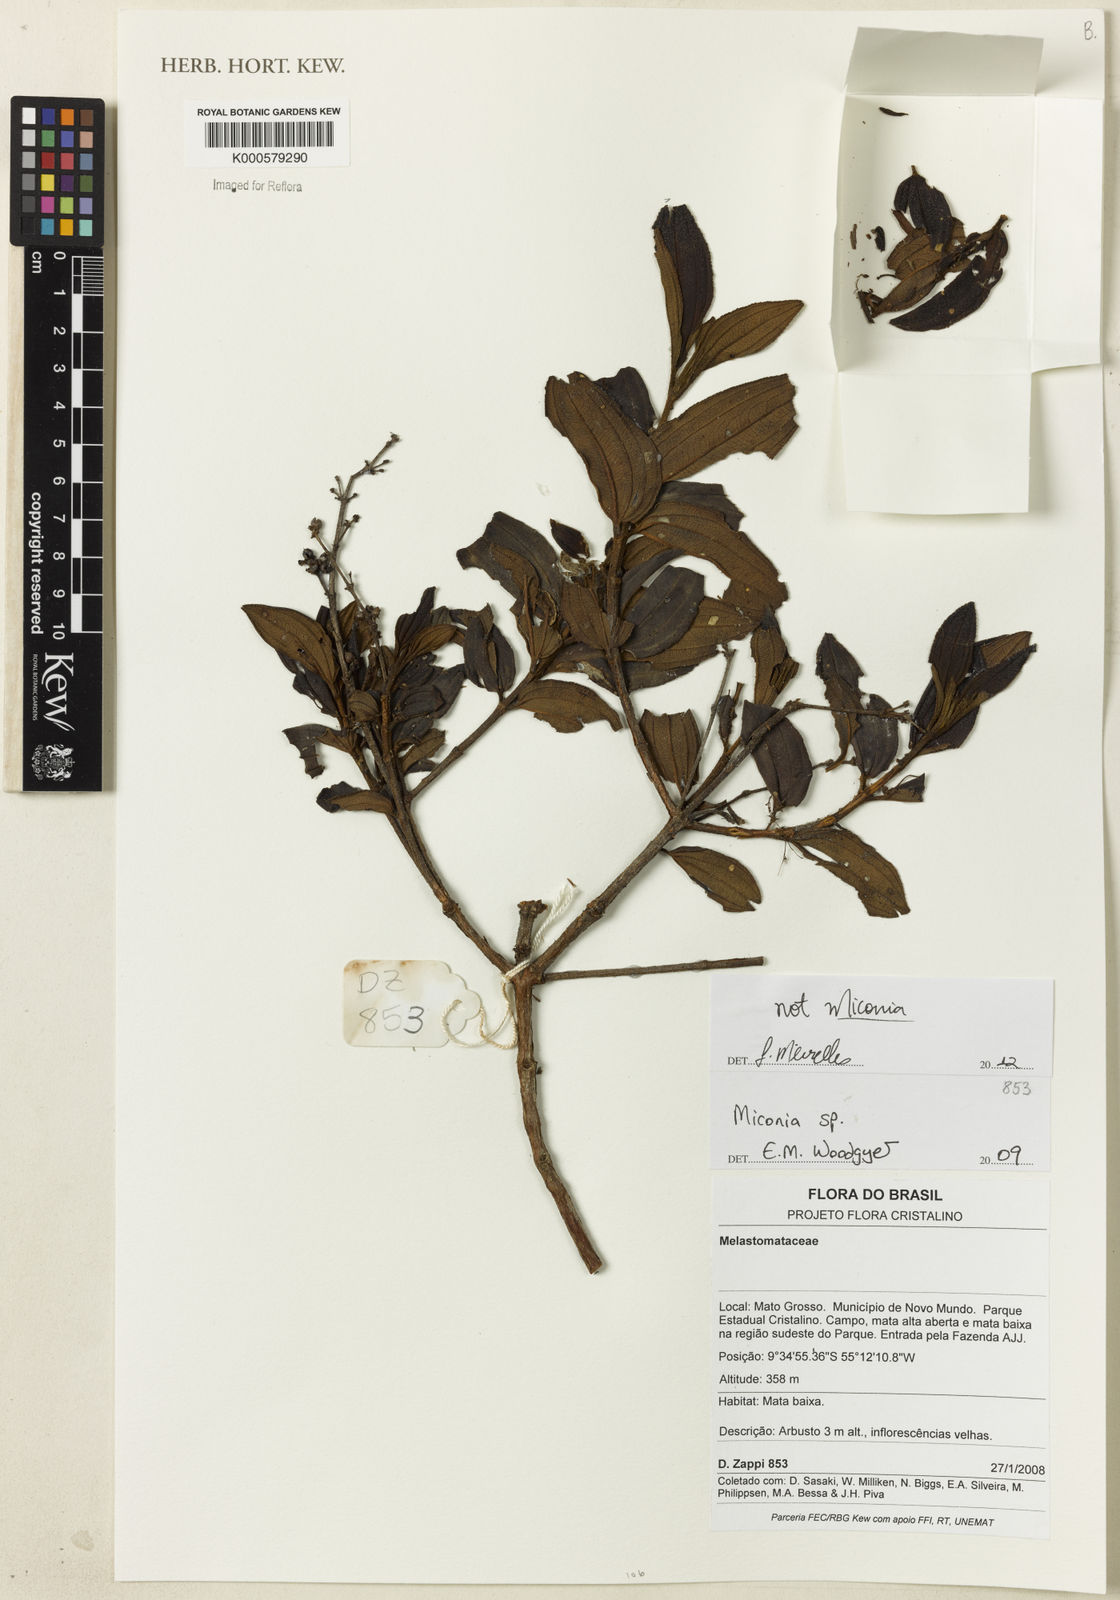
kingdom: Plantae
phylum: Tracheophyta
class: Magnoliopsida
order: Myrtales
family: Melastomataceae
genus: Miconia
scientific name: Miconia
